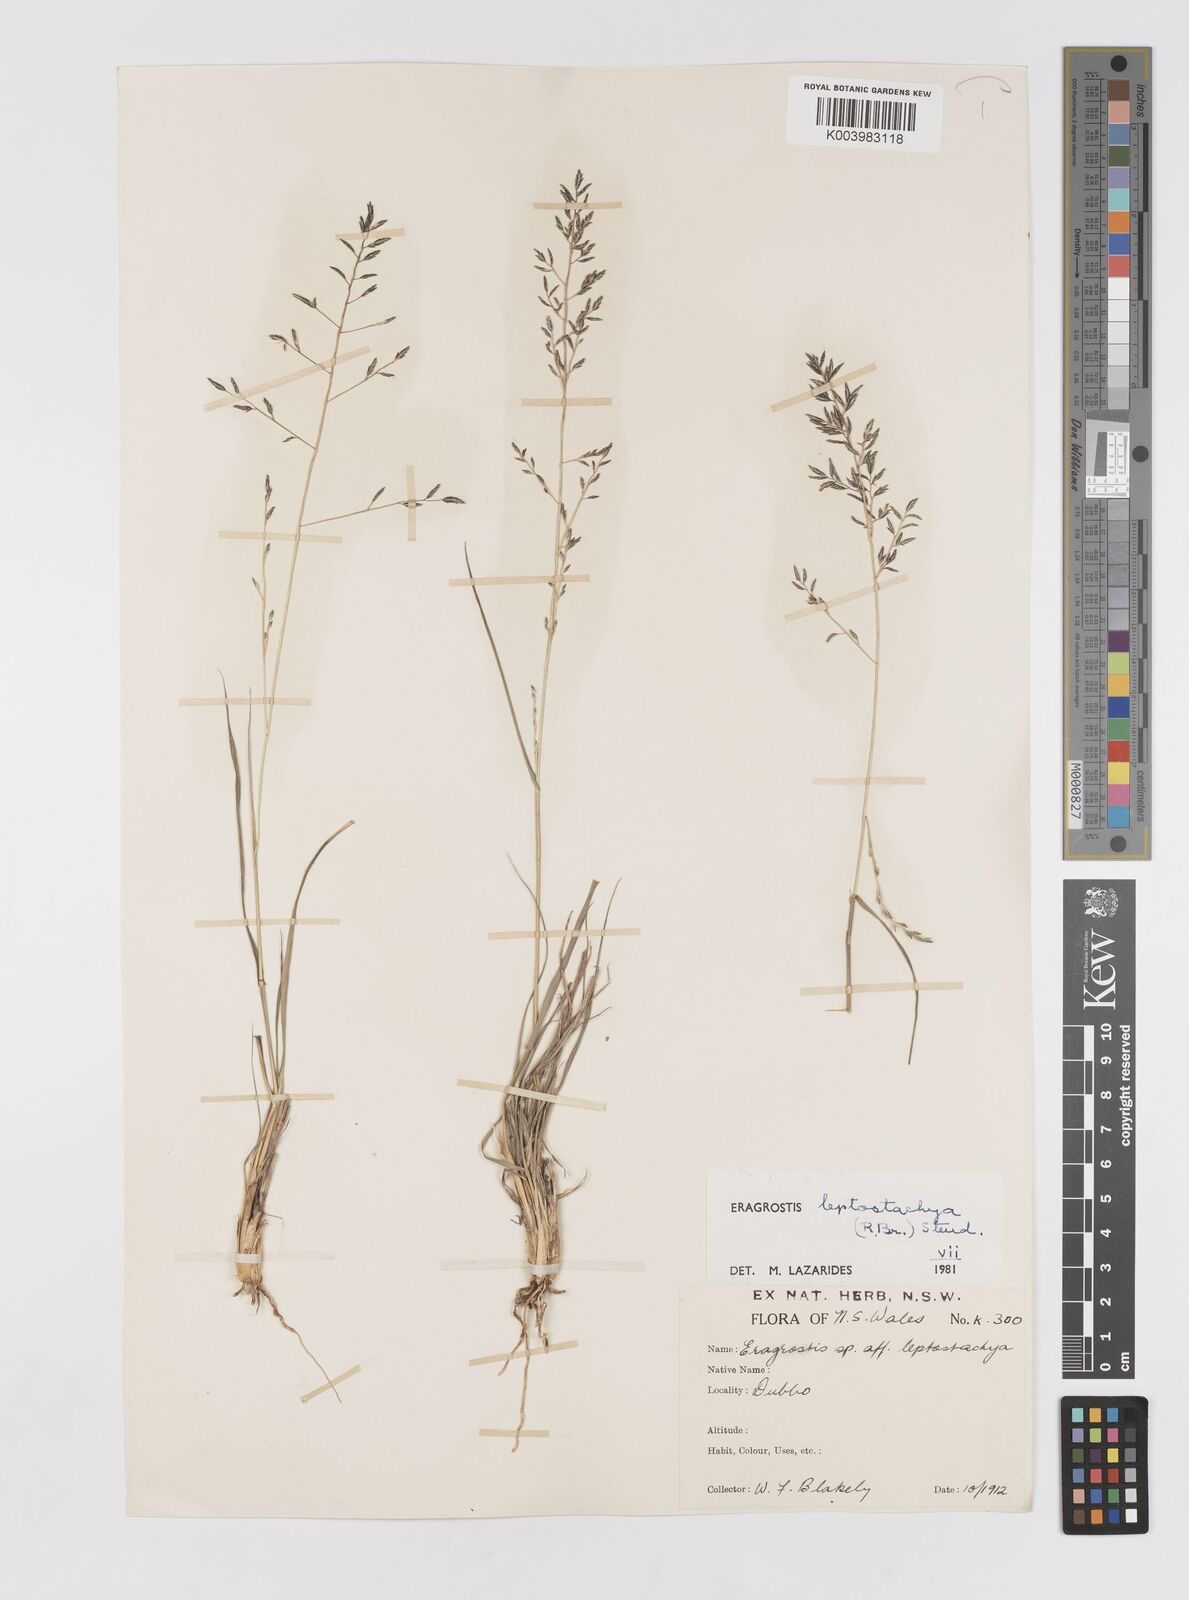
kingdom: Plantae
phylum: Tracheophyta
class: Liliopsida
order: Poales
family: Poaceae
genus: Eragrostis
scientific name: Eragrostis leptostachya
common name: Australian lovegrass
